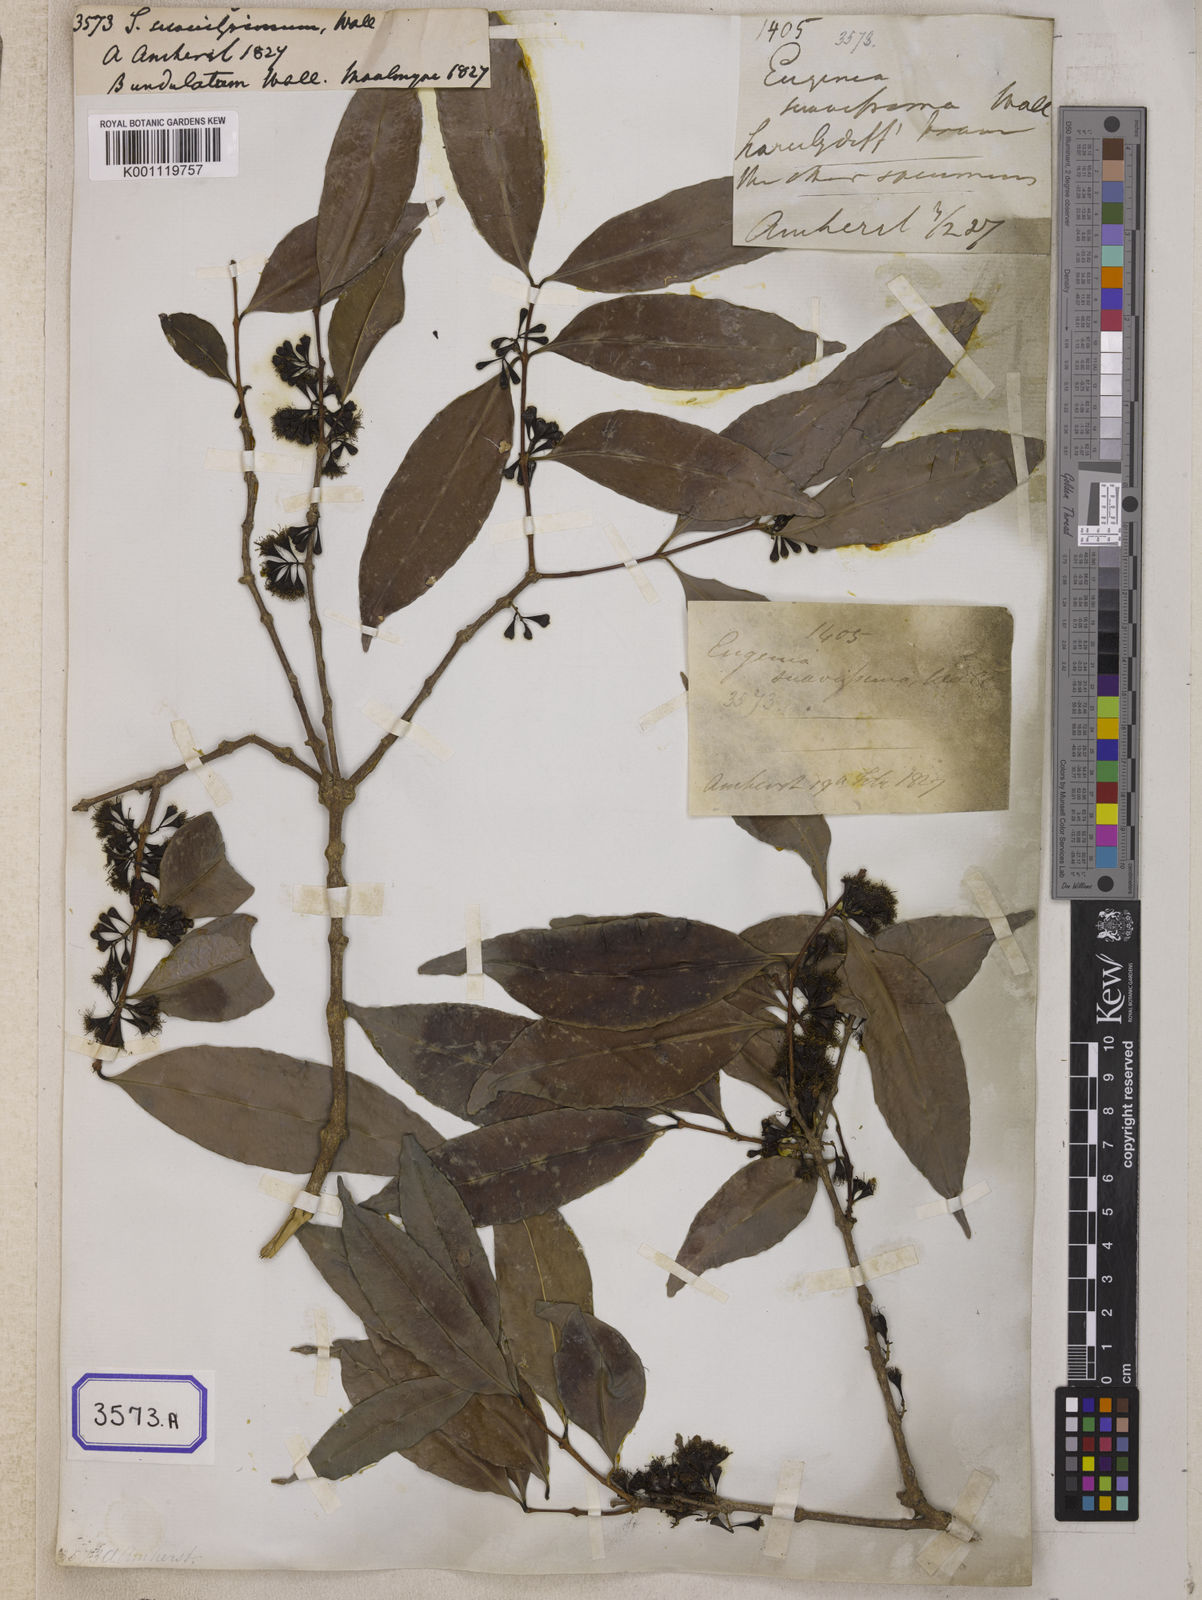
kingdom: Plantae
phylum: Tracheophyta
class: Magnoliopsida
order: Myrtales
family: Myrtaceae
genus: Syzygium
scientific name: Syzygium
